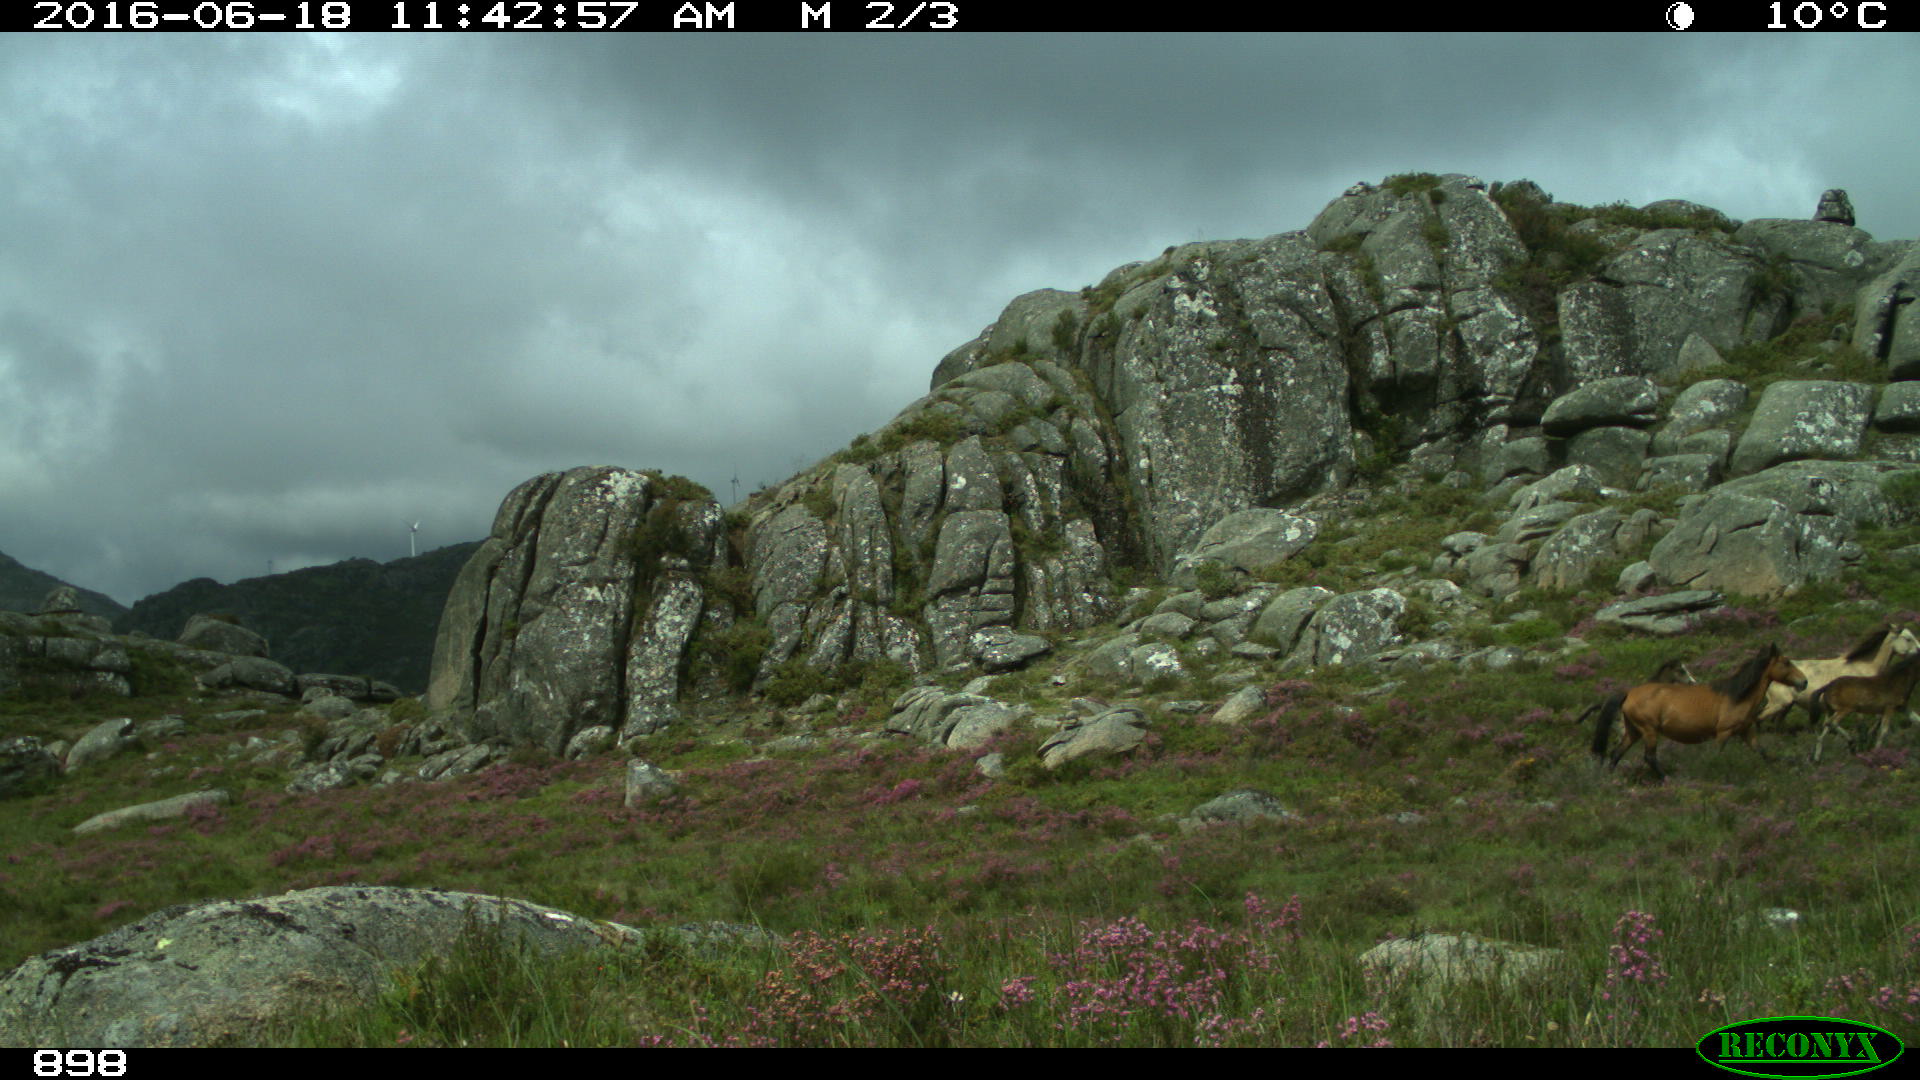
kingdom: Animalia
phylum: Chordata
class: Mammalia
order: Perissodactyla
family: Equidae
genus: Equus
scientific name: Equus caballus
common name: Horse
